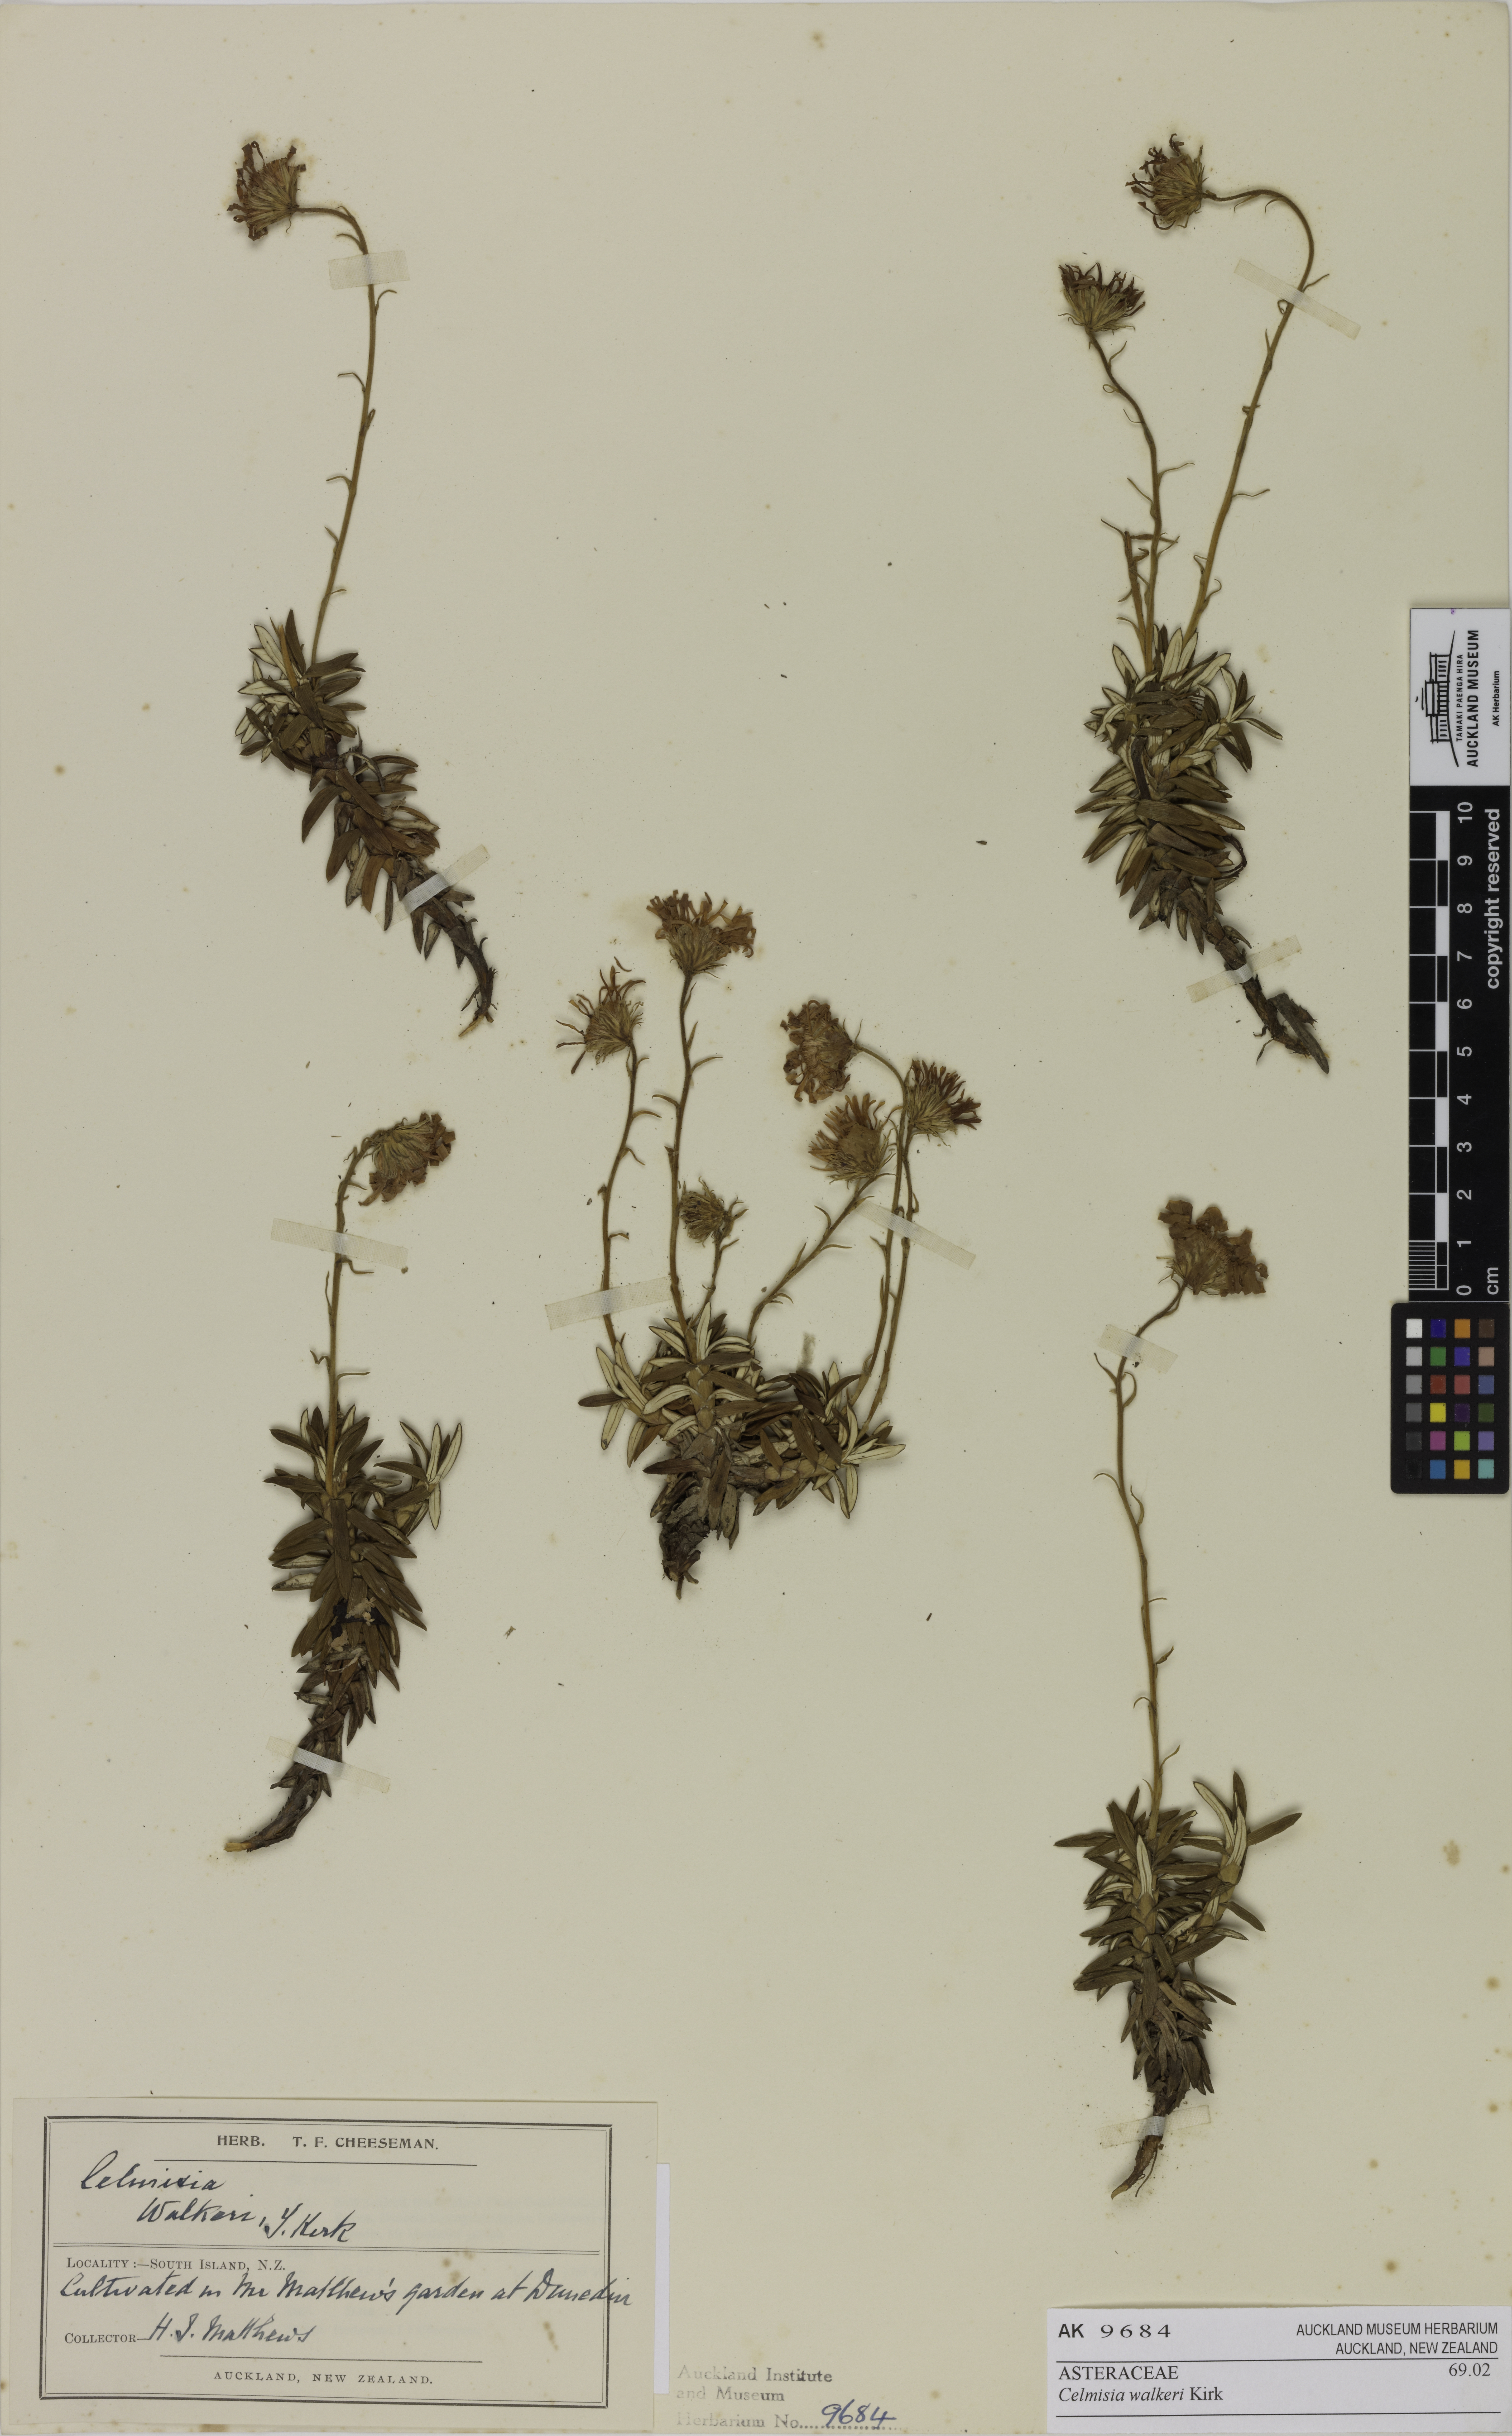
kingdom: Plantae
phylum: Tracheophyta
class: Magnoliopsida
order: Asterales
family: Asteraceae
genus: Celmisia
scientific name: Celmisia walkeri
